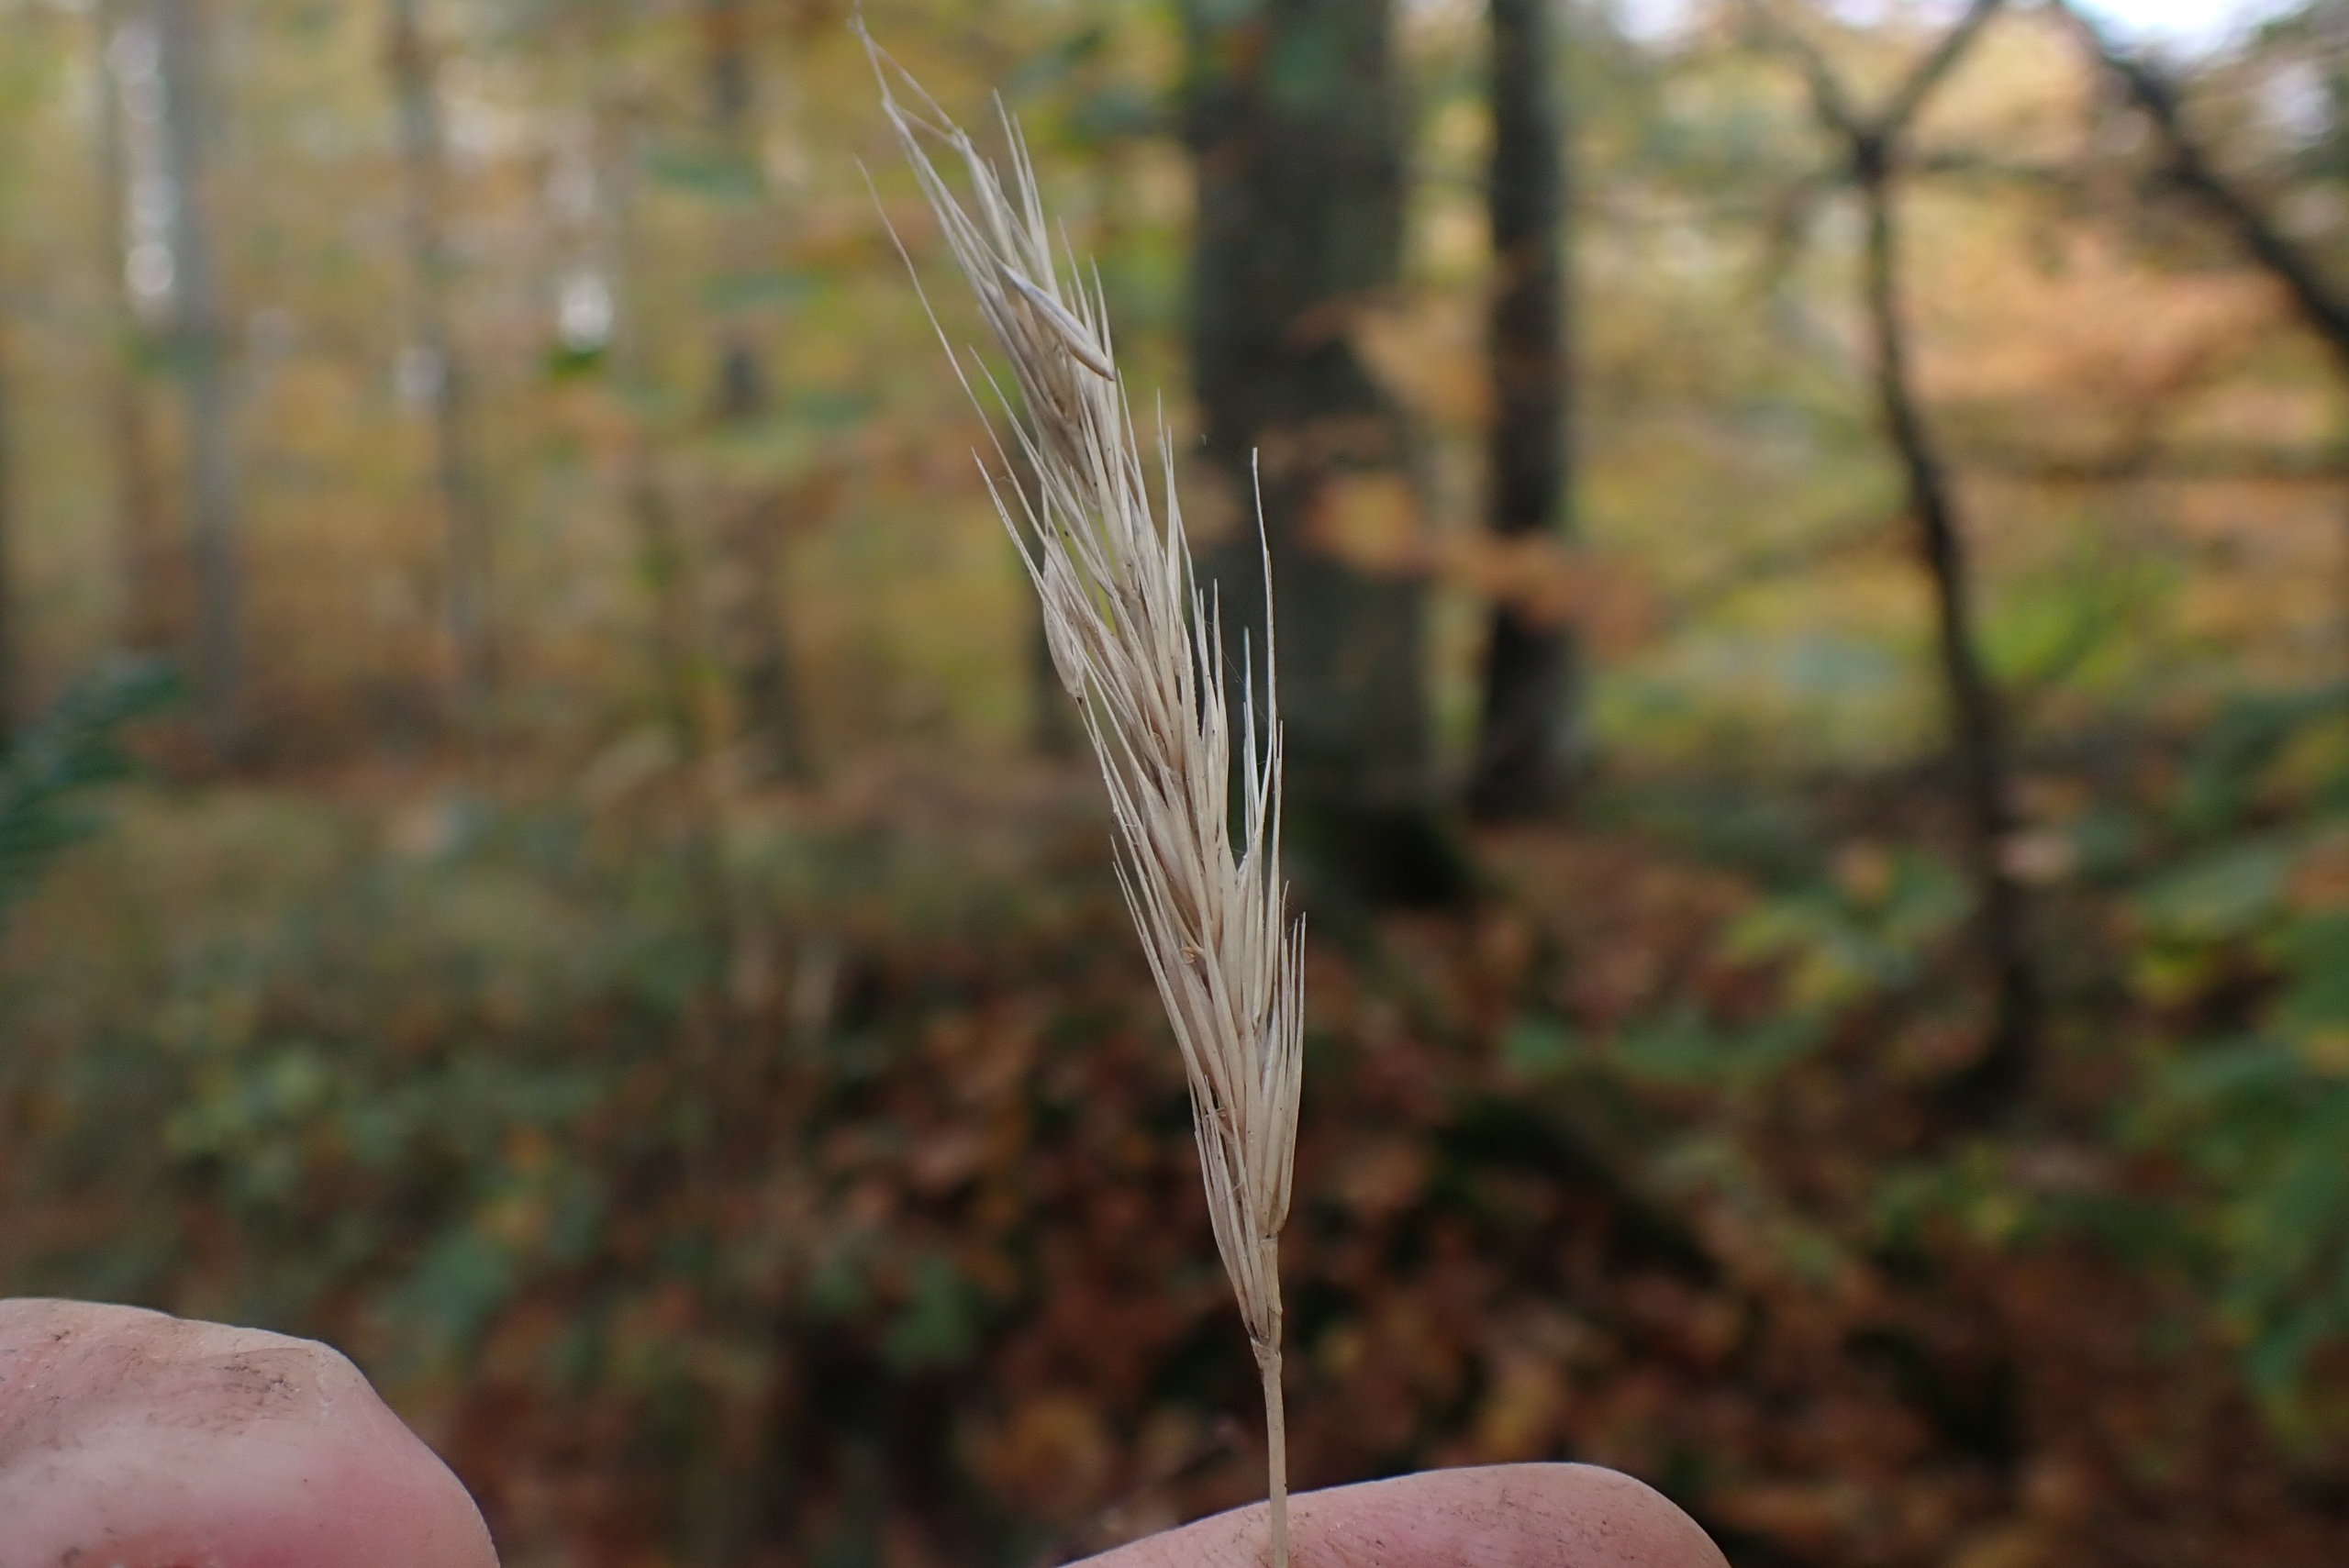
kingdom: Plantae
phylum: Tracheophyta
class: Liliopsida
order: Poales
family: Poaceae
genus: Hordelymus
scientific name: Hordelymus europaeus
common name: Skovbyg
